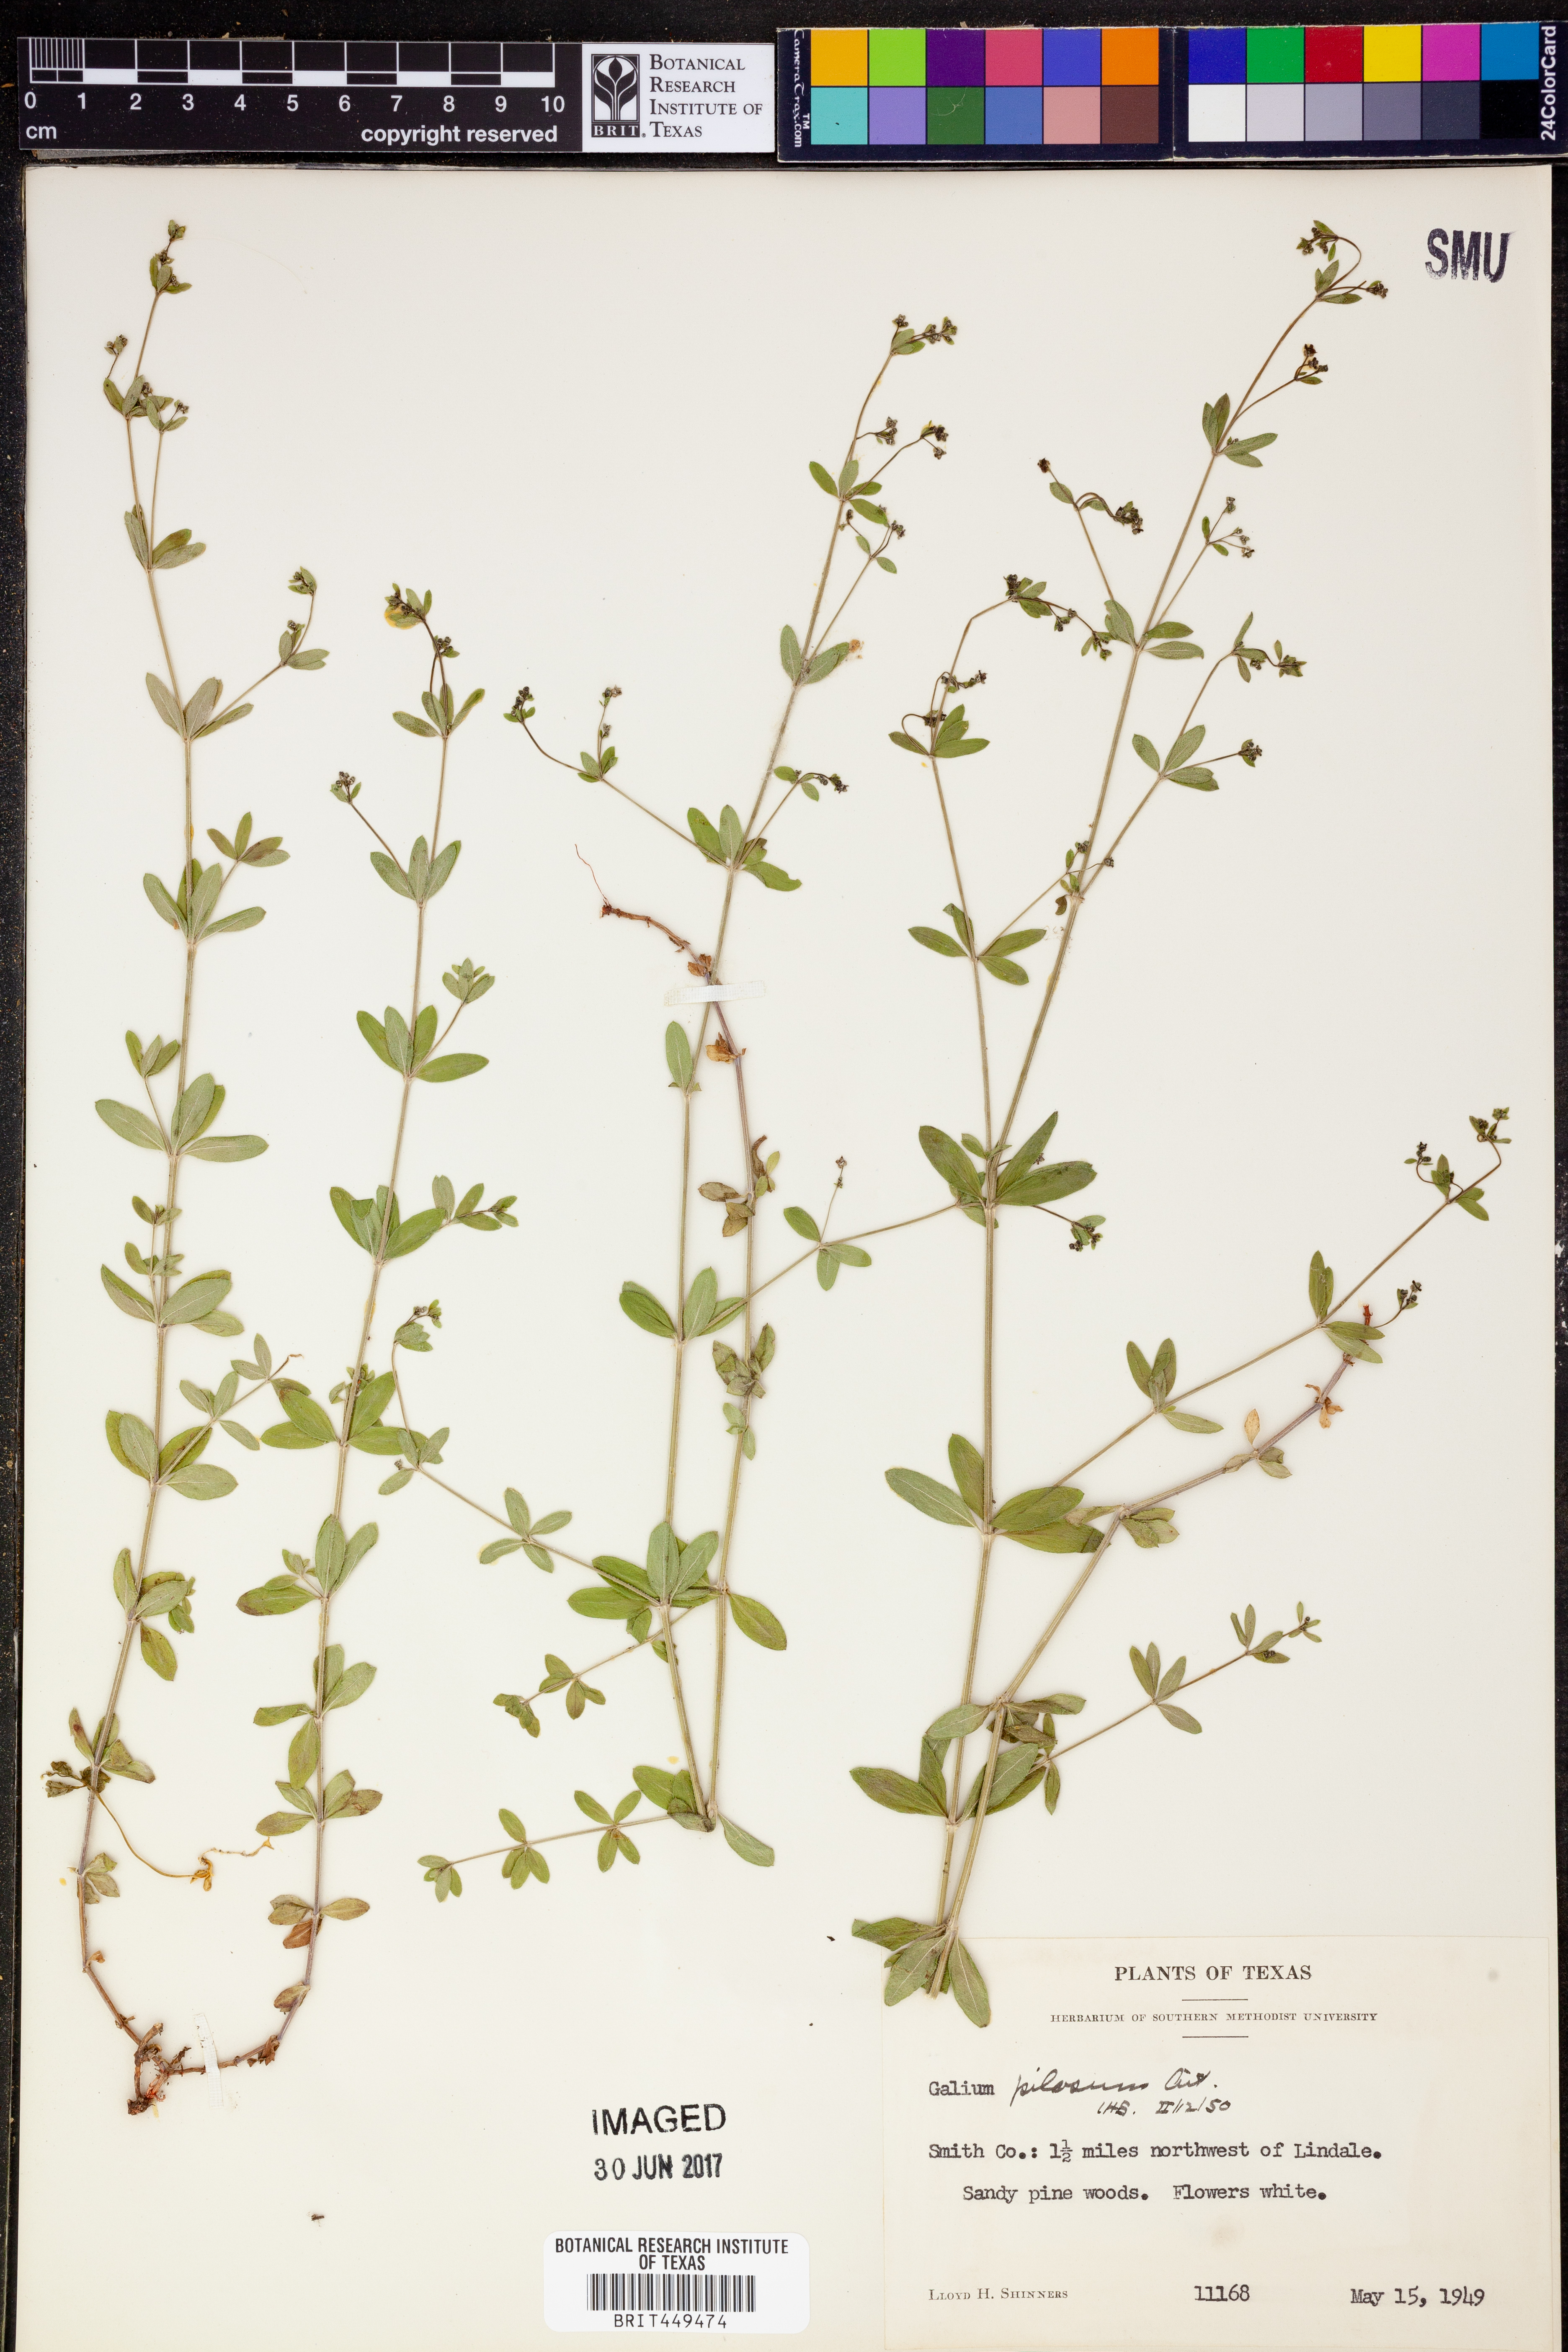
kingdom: Plantae
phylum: Tracheophyta
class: Magnoliopsida
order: Gentianales
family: Rubiaceae
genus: Galium
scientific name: Galium pilosum
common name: Hairy bedstraw
